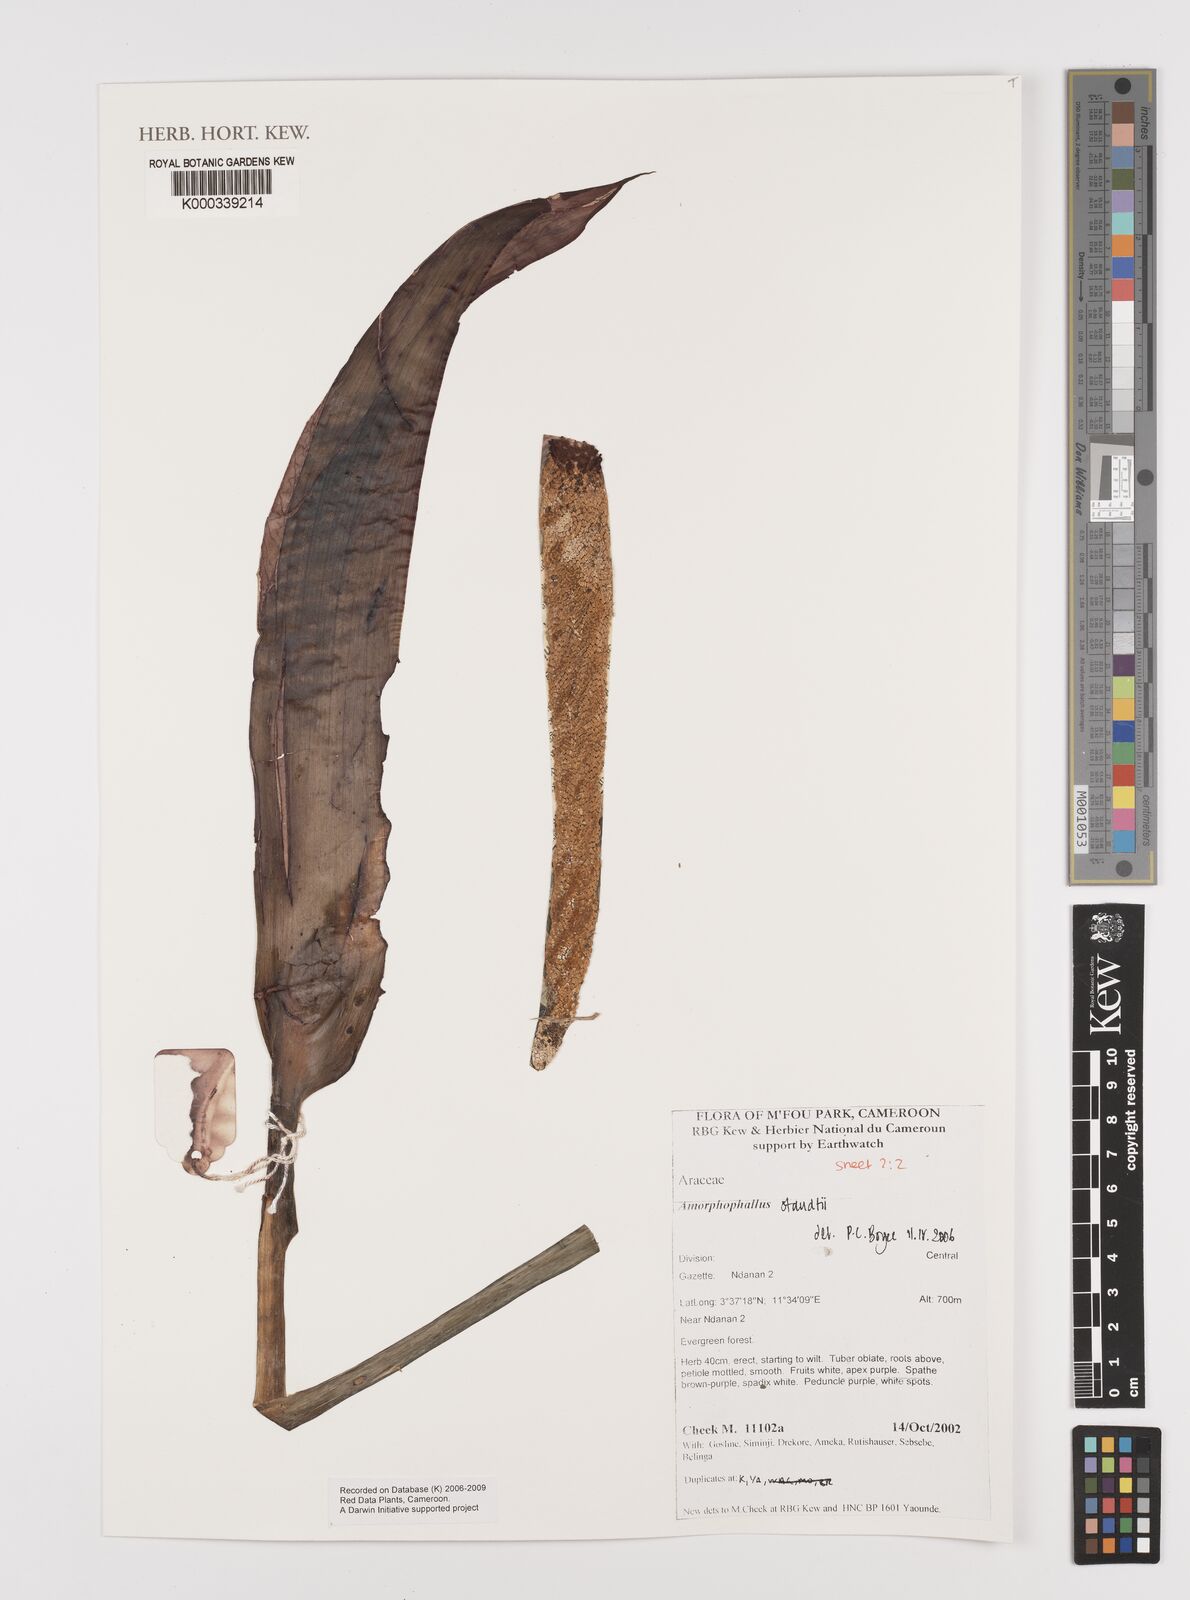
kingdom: Plantae
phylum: Tracheophyta
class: Liliopsida
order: Alismatales
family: Araceae
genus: Amorphophallus
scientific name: Amorphophallus staudtii
